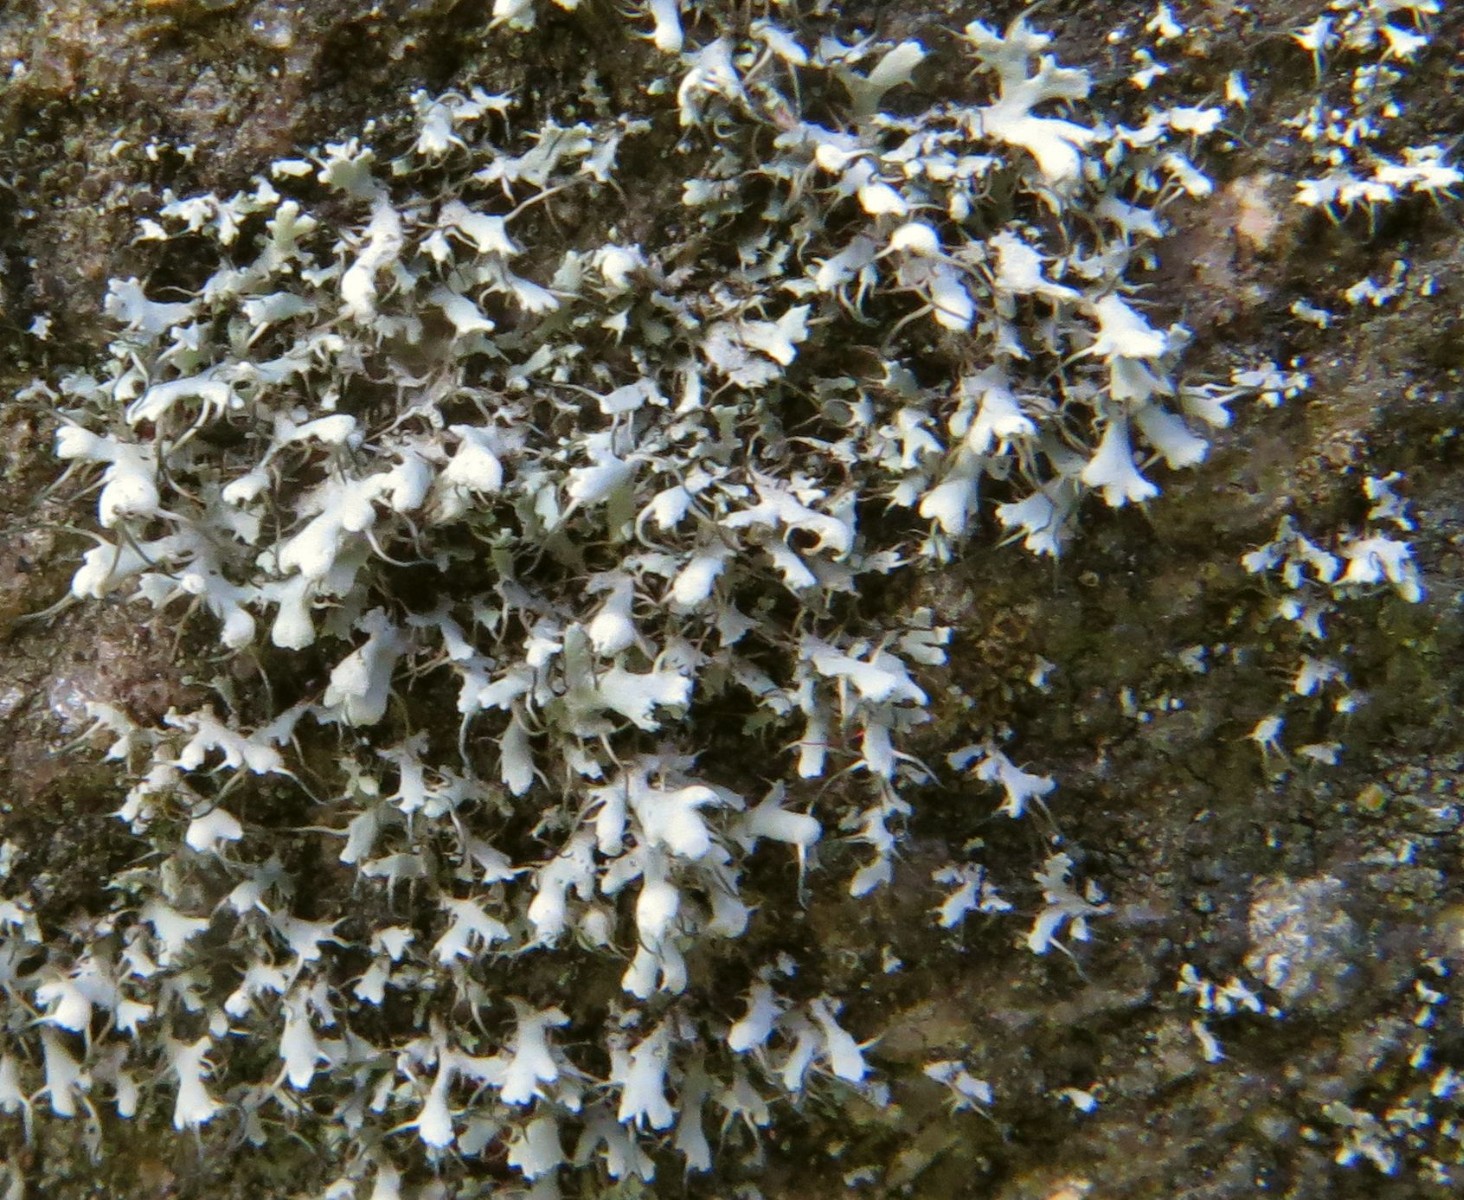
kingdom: Fungi
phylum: Ascomycota
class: Lecanoromycetes
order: Caliciales
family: Physciaceae
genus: Physcia
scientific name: Physcia tenella
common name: spæd rosetlav
